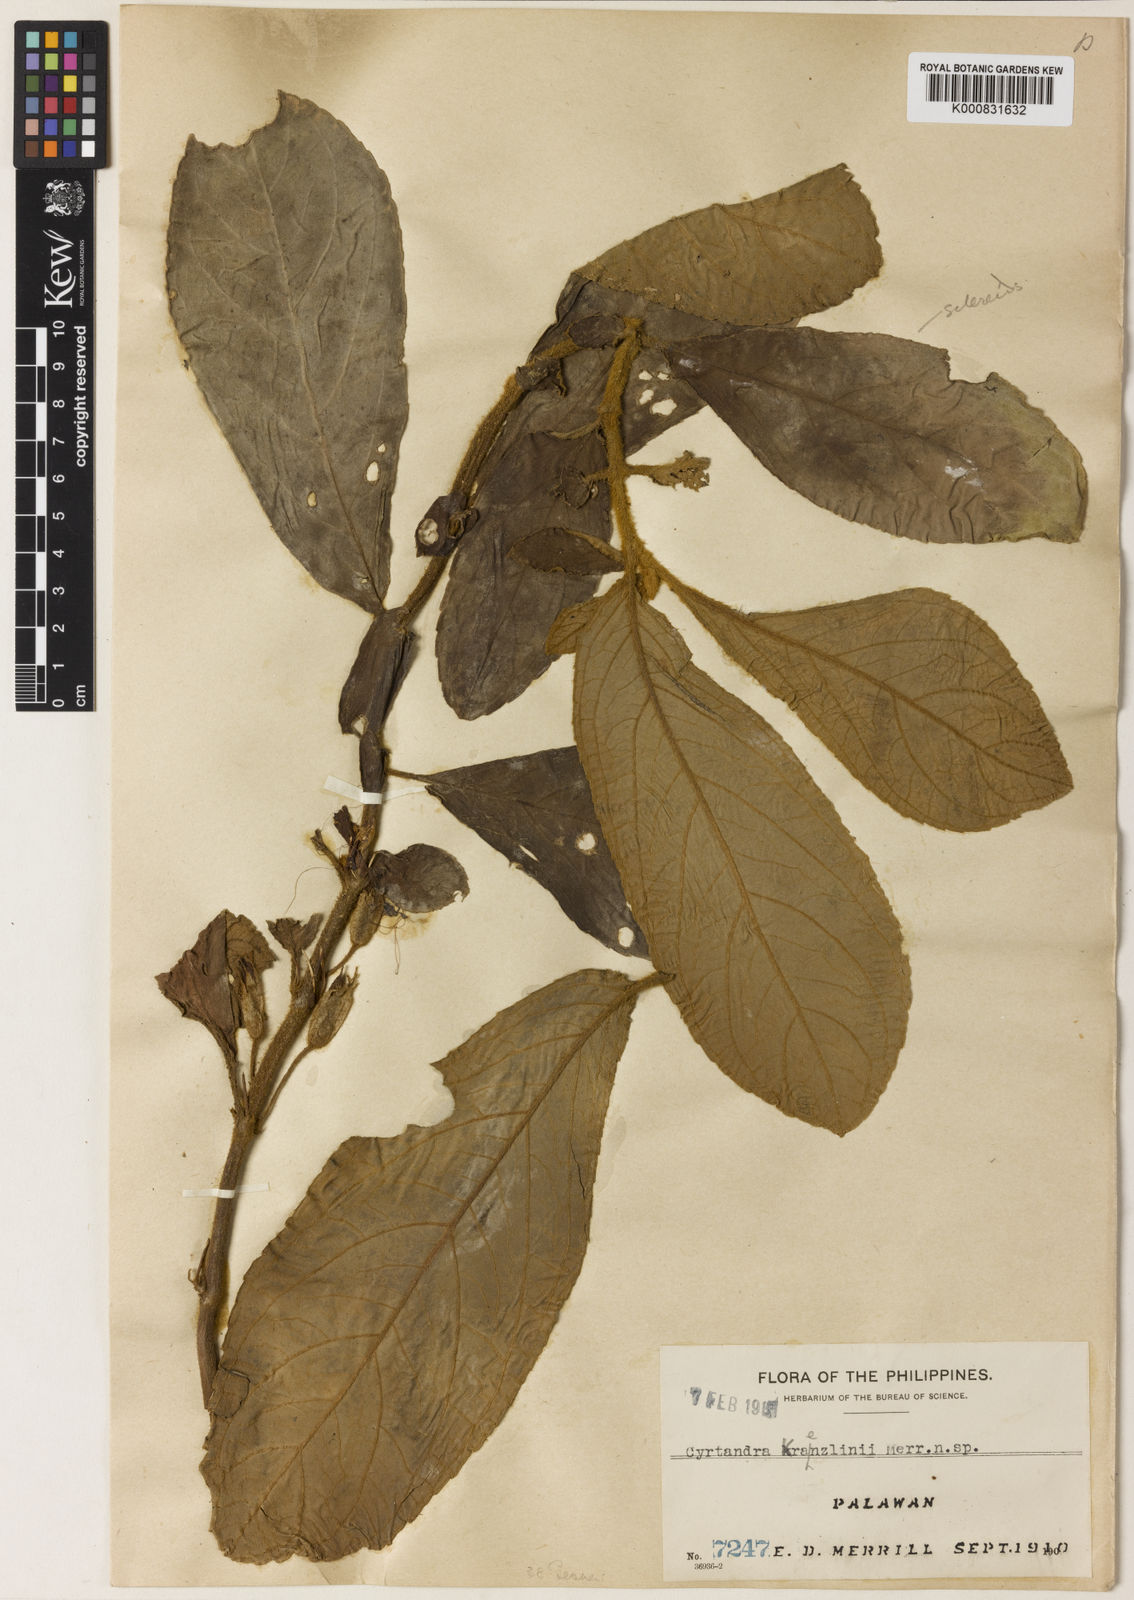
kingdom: Plantae
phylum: Tracheophyta
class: Magnoliopsida
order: Lamiales
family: Gesneriaceae
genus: Cyrtandra
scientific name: Cyrtandra elatostemmoides
